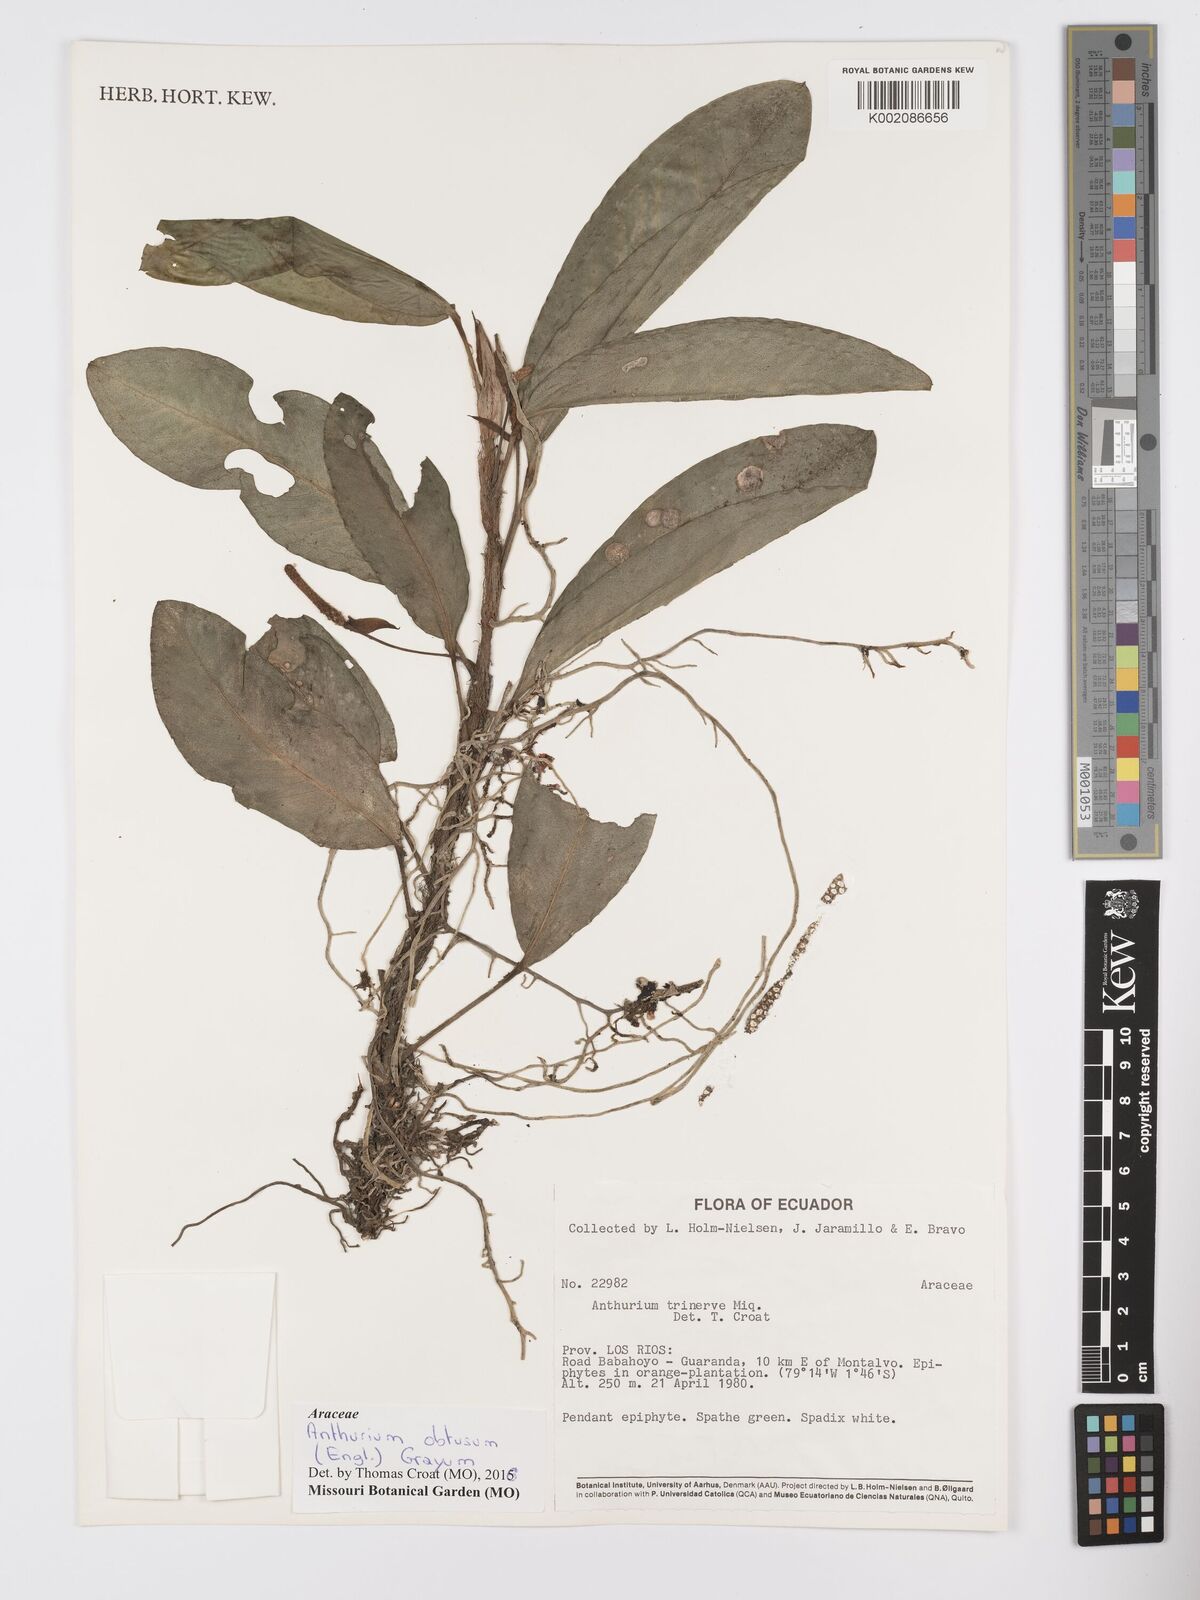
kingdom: Plantae
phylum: Tracheophyta
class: Liliopsida
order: Alismatales
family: Araceae
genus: Anthurium
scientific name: Anthurium obtusum
